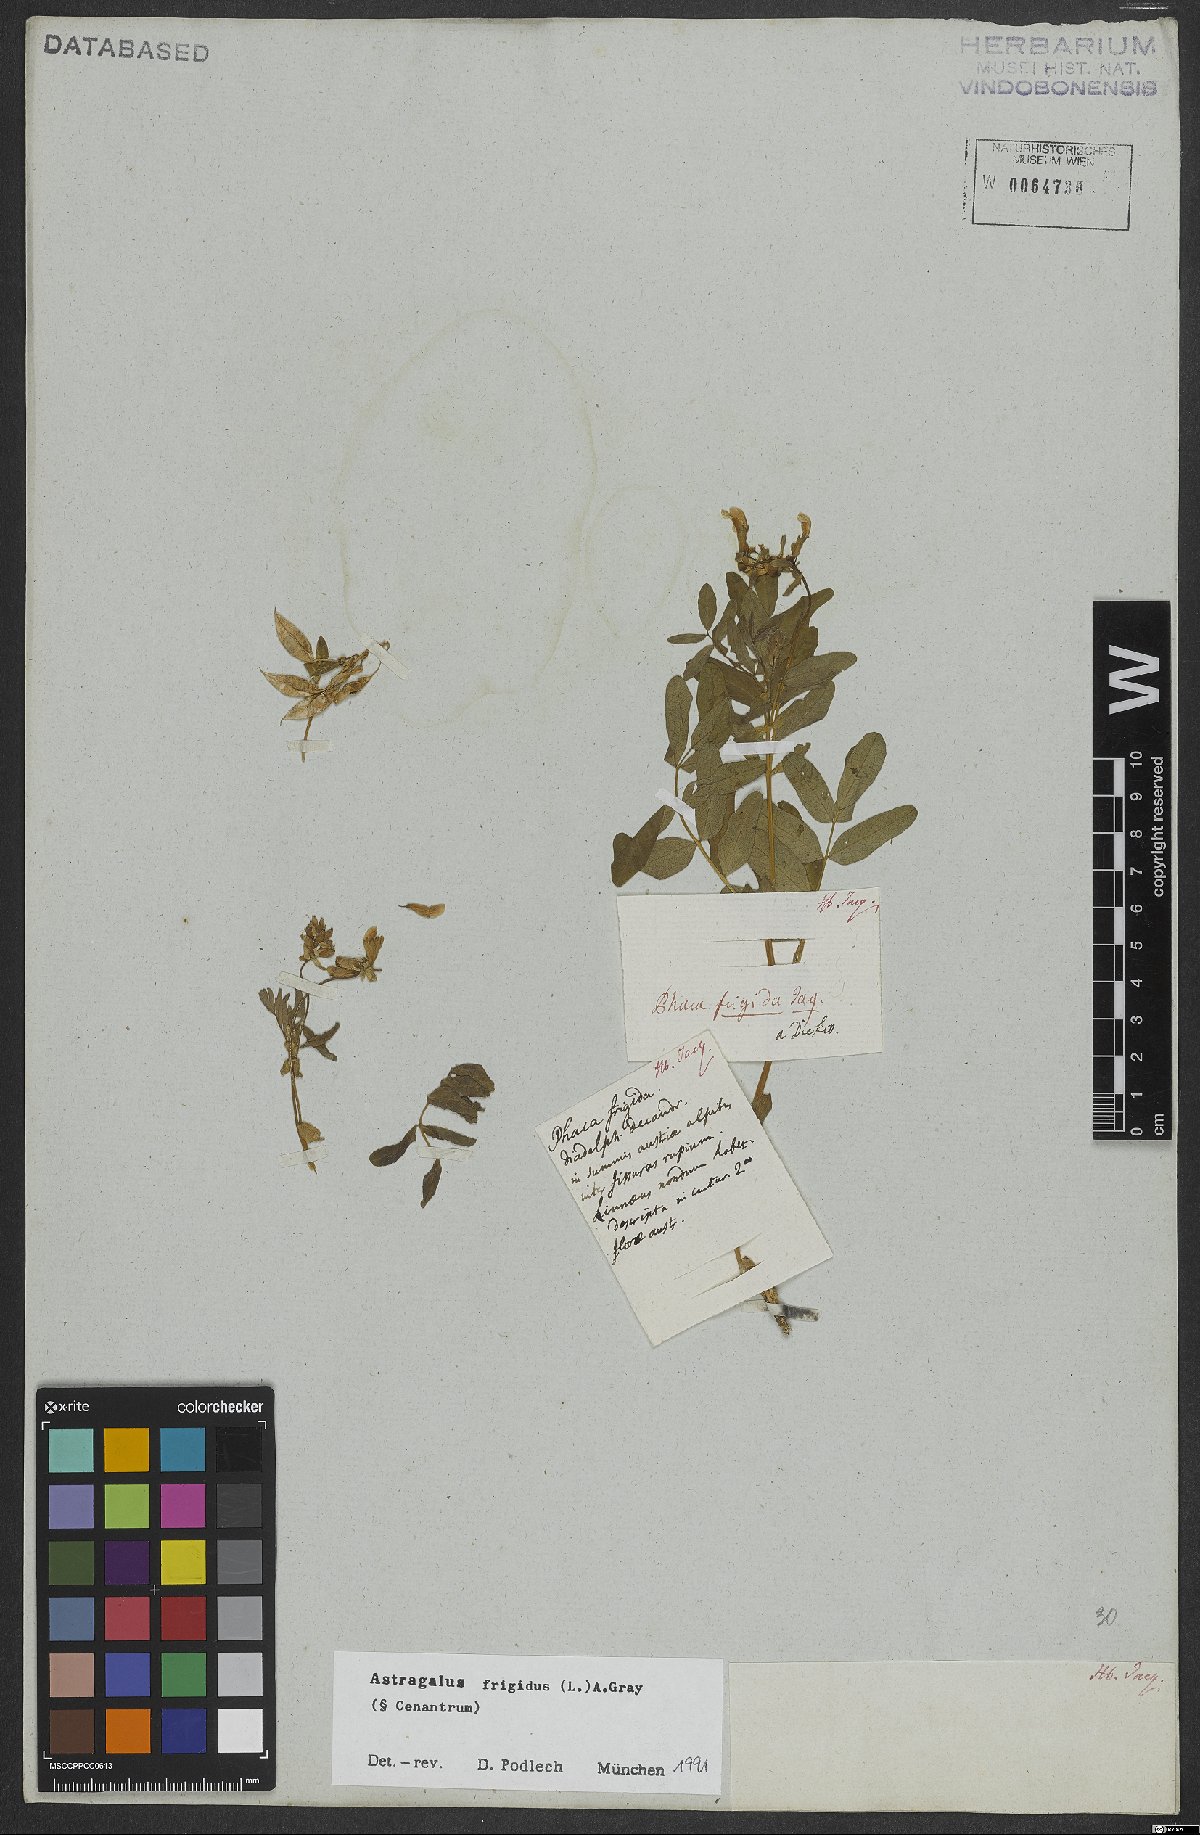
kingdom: Plantae
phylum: Tracheophyta
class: Magnoliopsida
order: Fabales
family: Fabaceae
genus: Astragalus
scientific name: Astragalus frigidus
